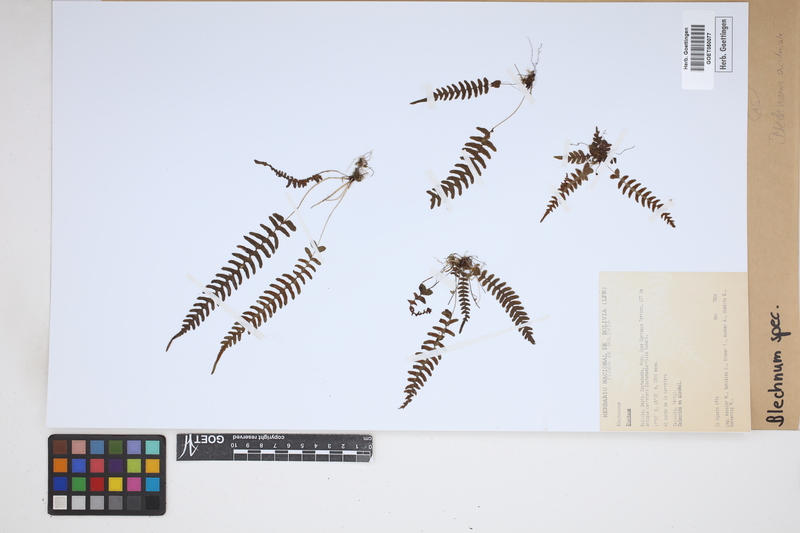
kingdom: Plantae
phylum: Tracheophyta
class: Polypodiopsida
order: Polypodiales
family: Blechnaceae
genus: Blechnum
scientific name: Blechnum
